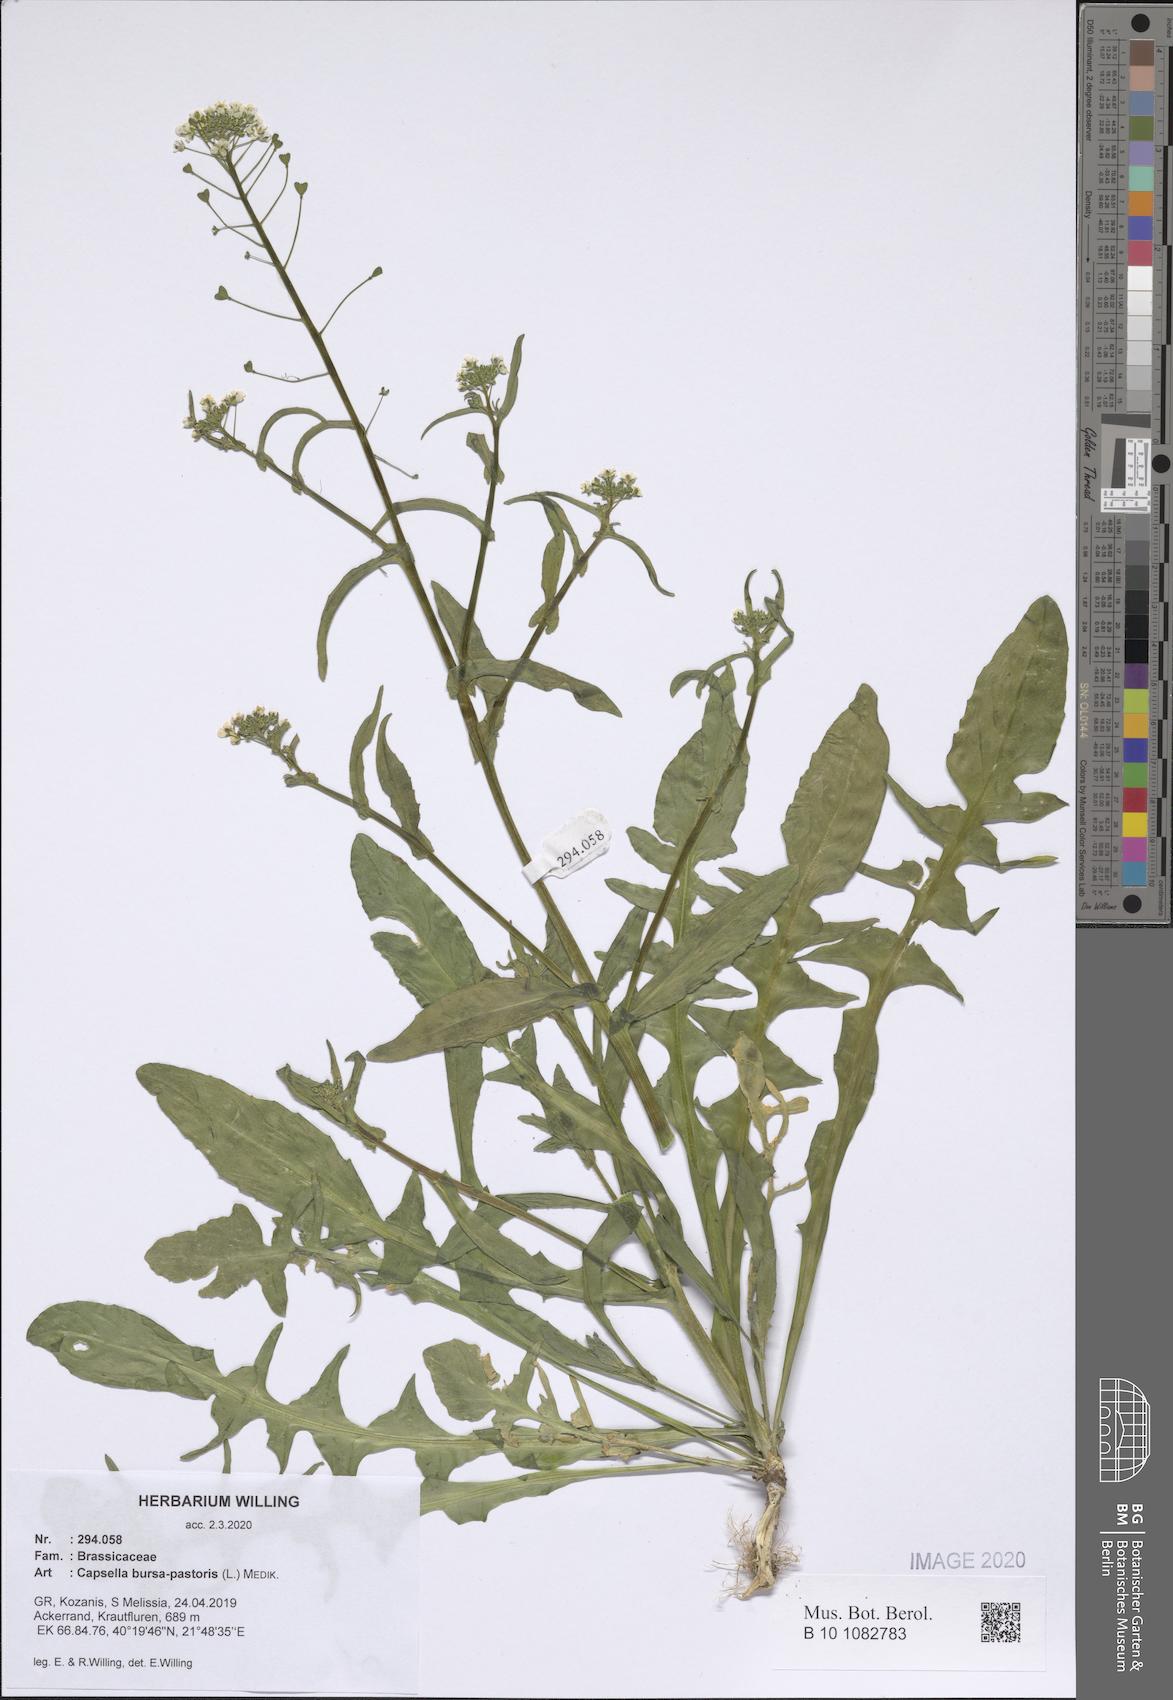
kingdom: Plantae
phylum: Tracheophyta
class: Magnoliopsida
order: Brassicales
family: Brassicaceae
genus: Capsella
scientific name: Capsella bursa-pastoris
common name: Shepherd's purse
